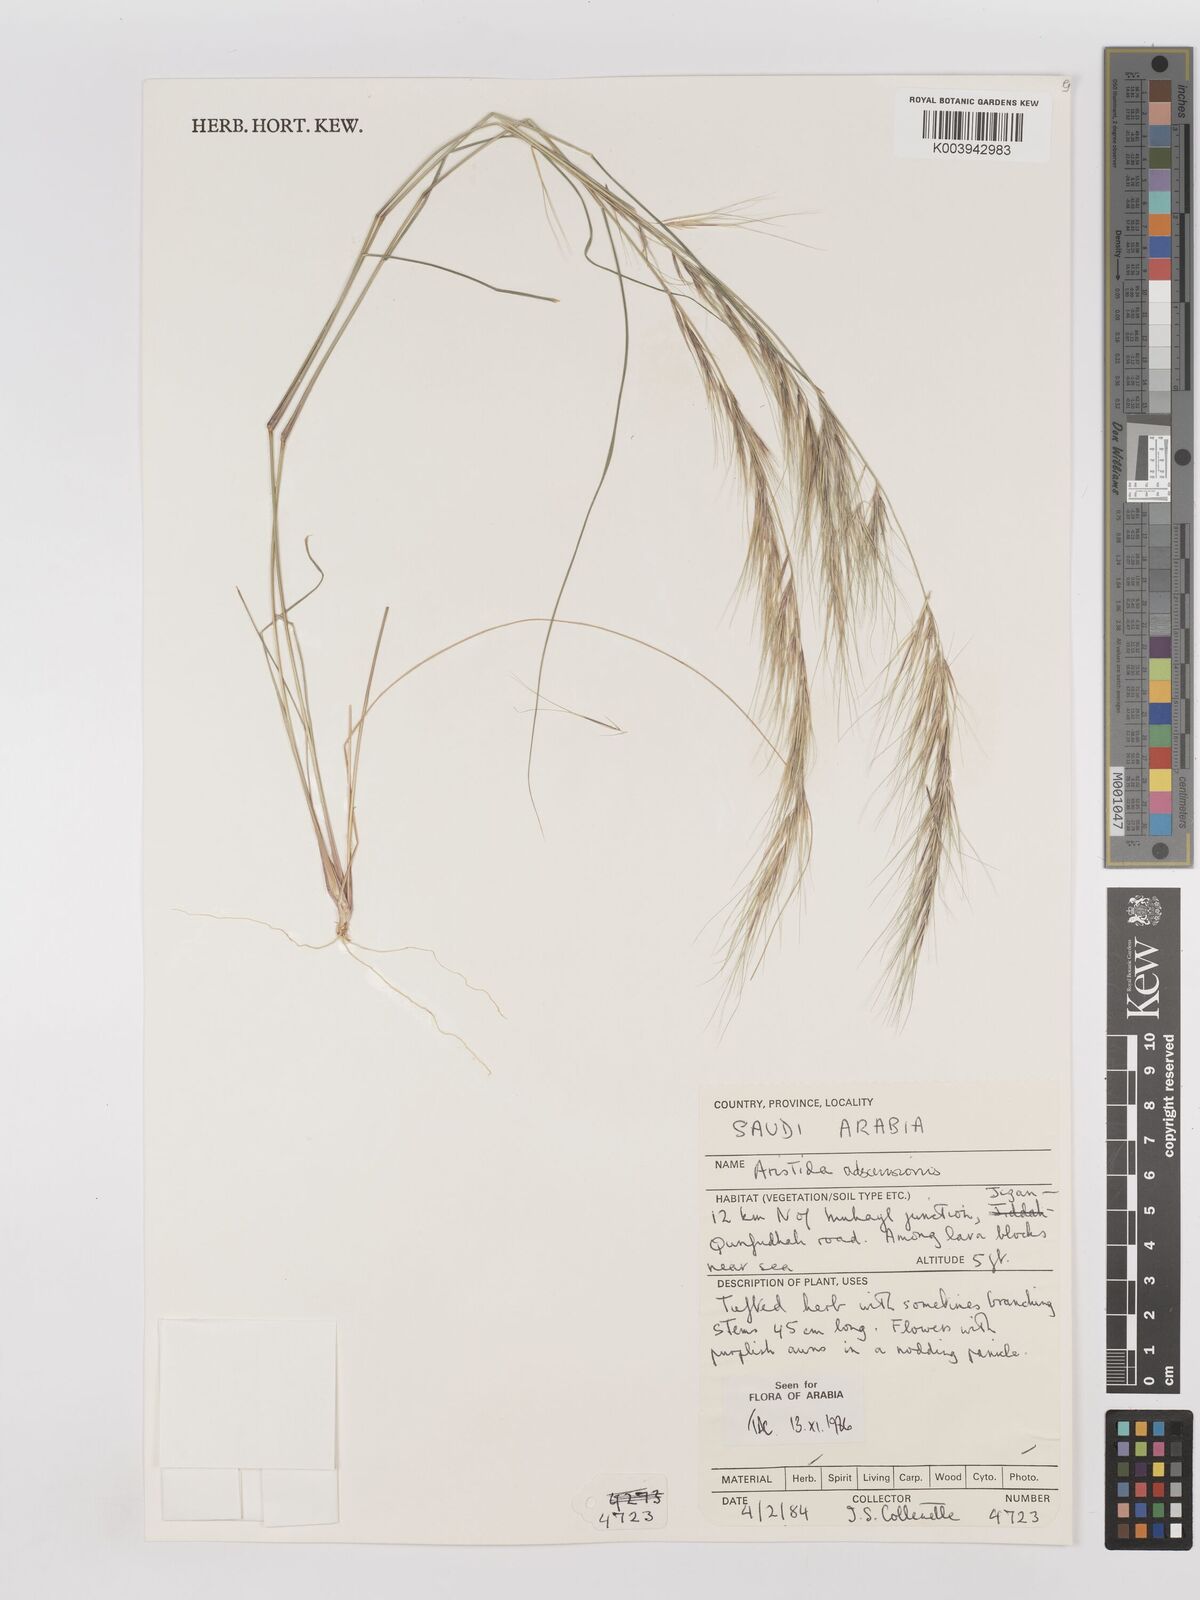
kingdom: Plantae
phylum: Tracheophyta
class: Liliopsida
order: Poales
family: Poaceae
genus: Aristida
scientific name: Aristida adscensionis
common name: Sixweeks threeawn
